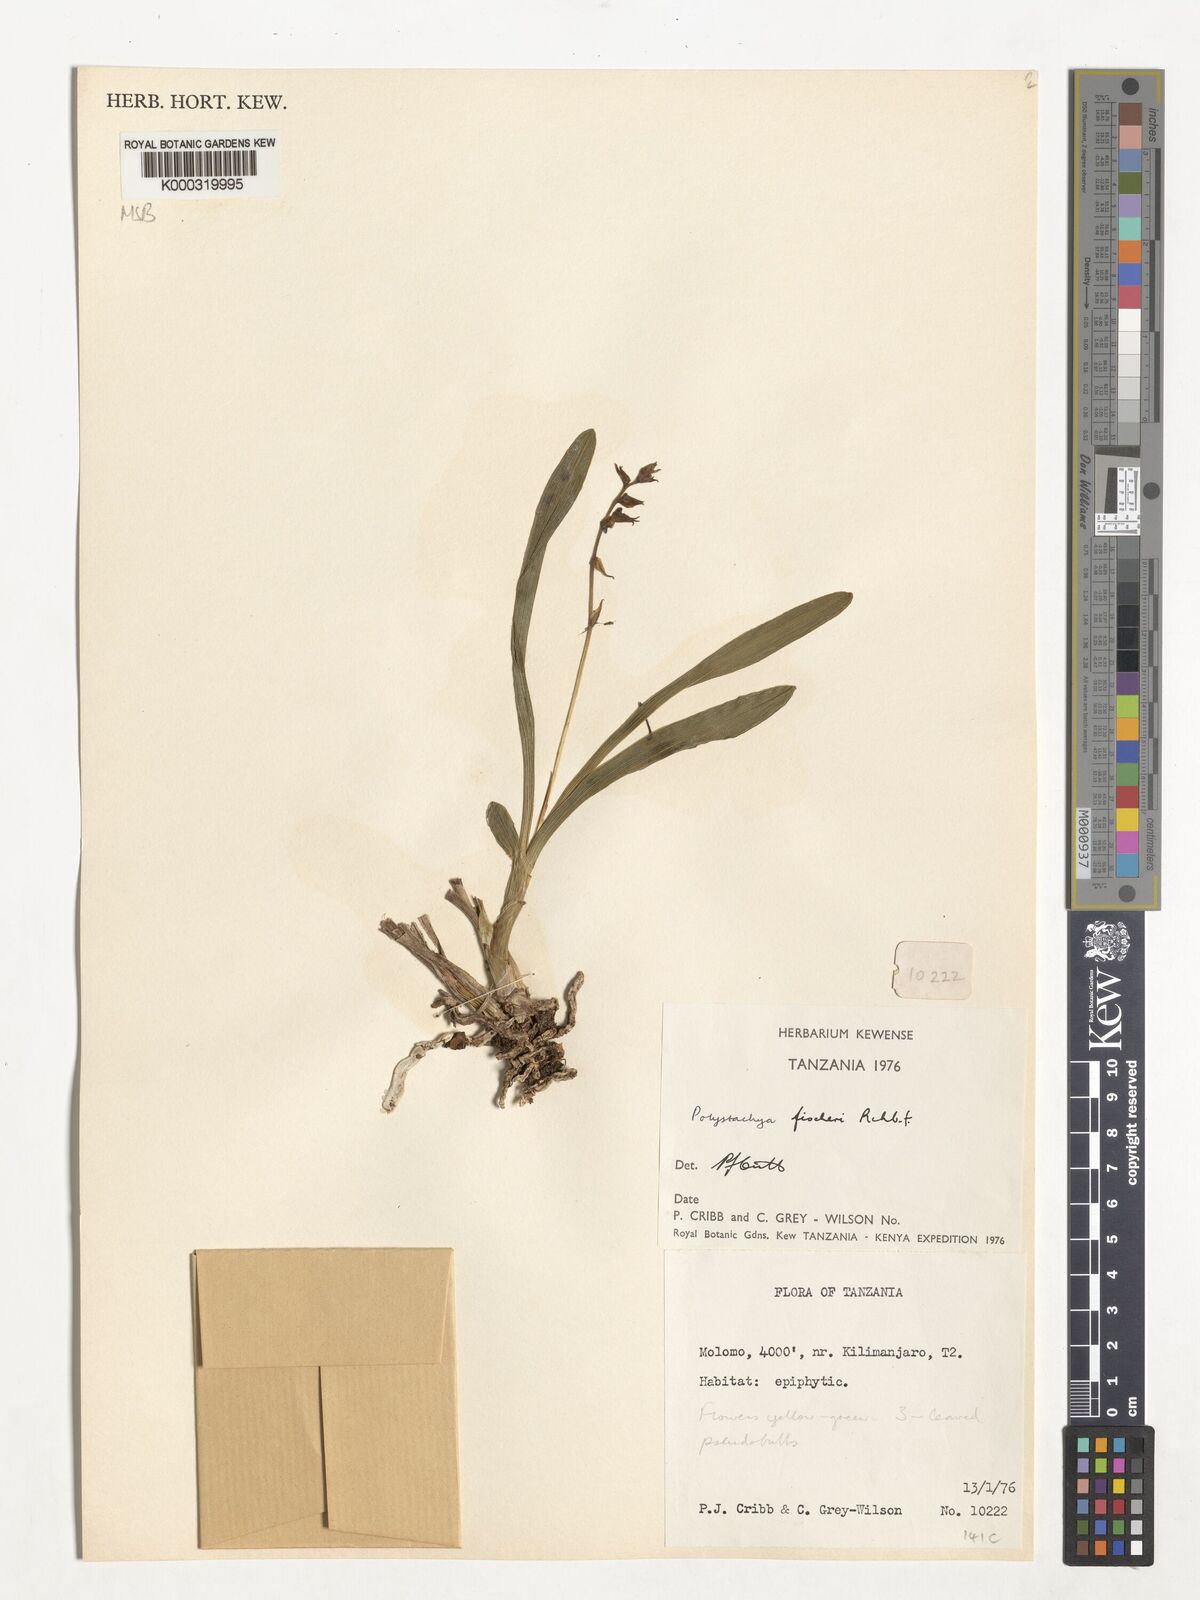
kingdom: Plantae
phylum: Tracheophyta
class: Liliopsida
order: Asparagales
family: Orchidaceae
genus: Polystachya
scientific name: Polystachya fischeri
